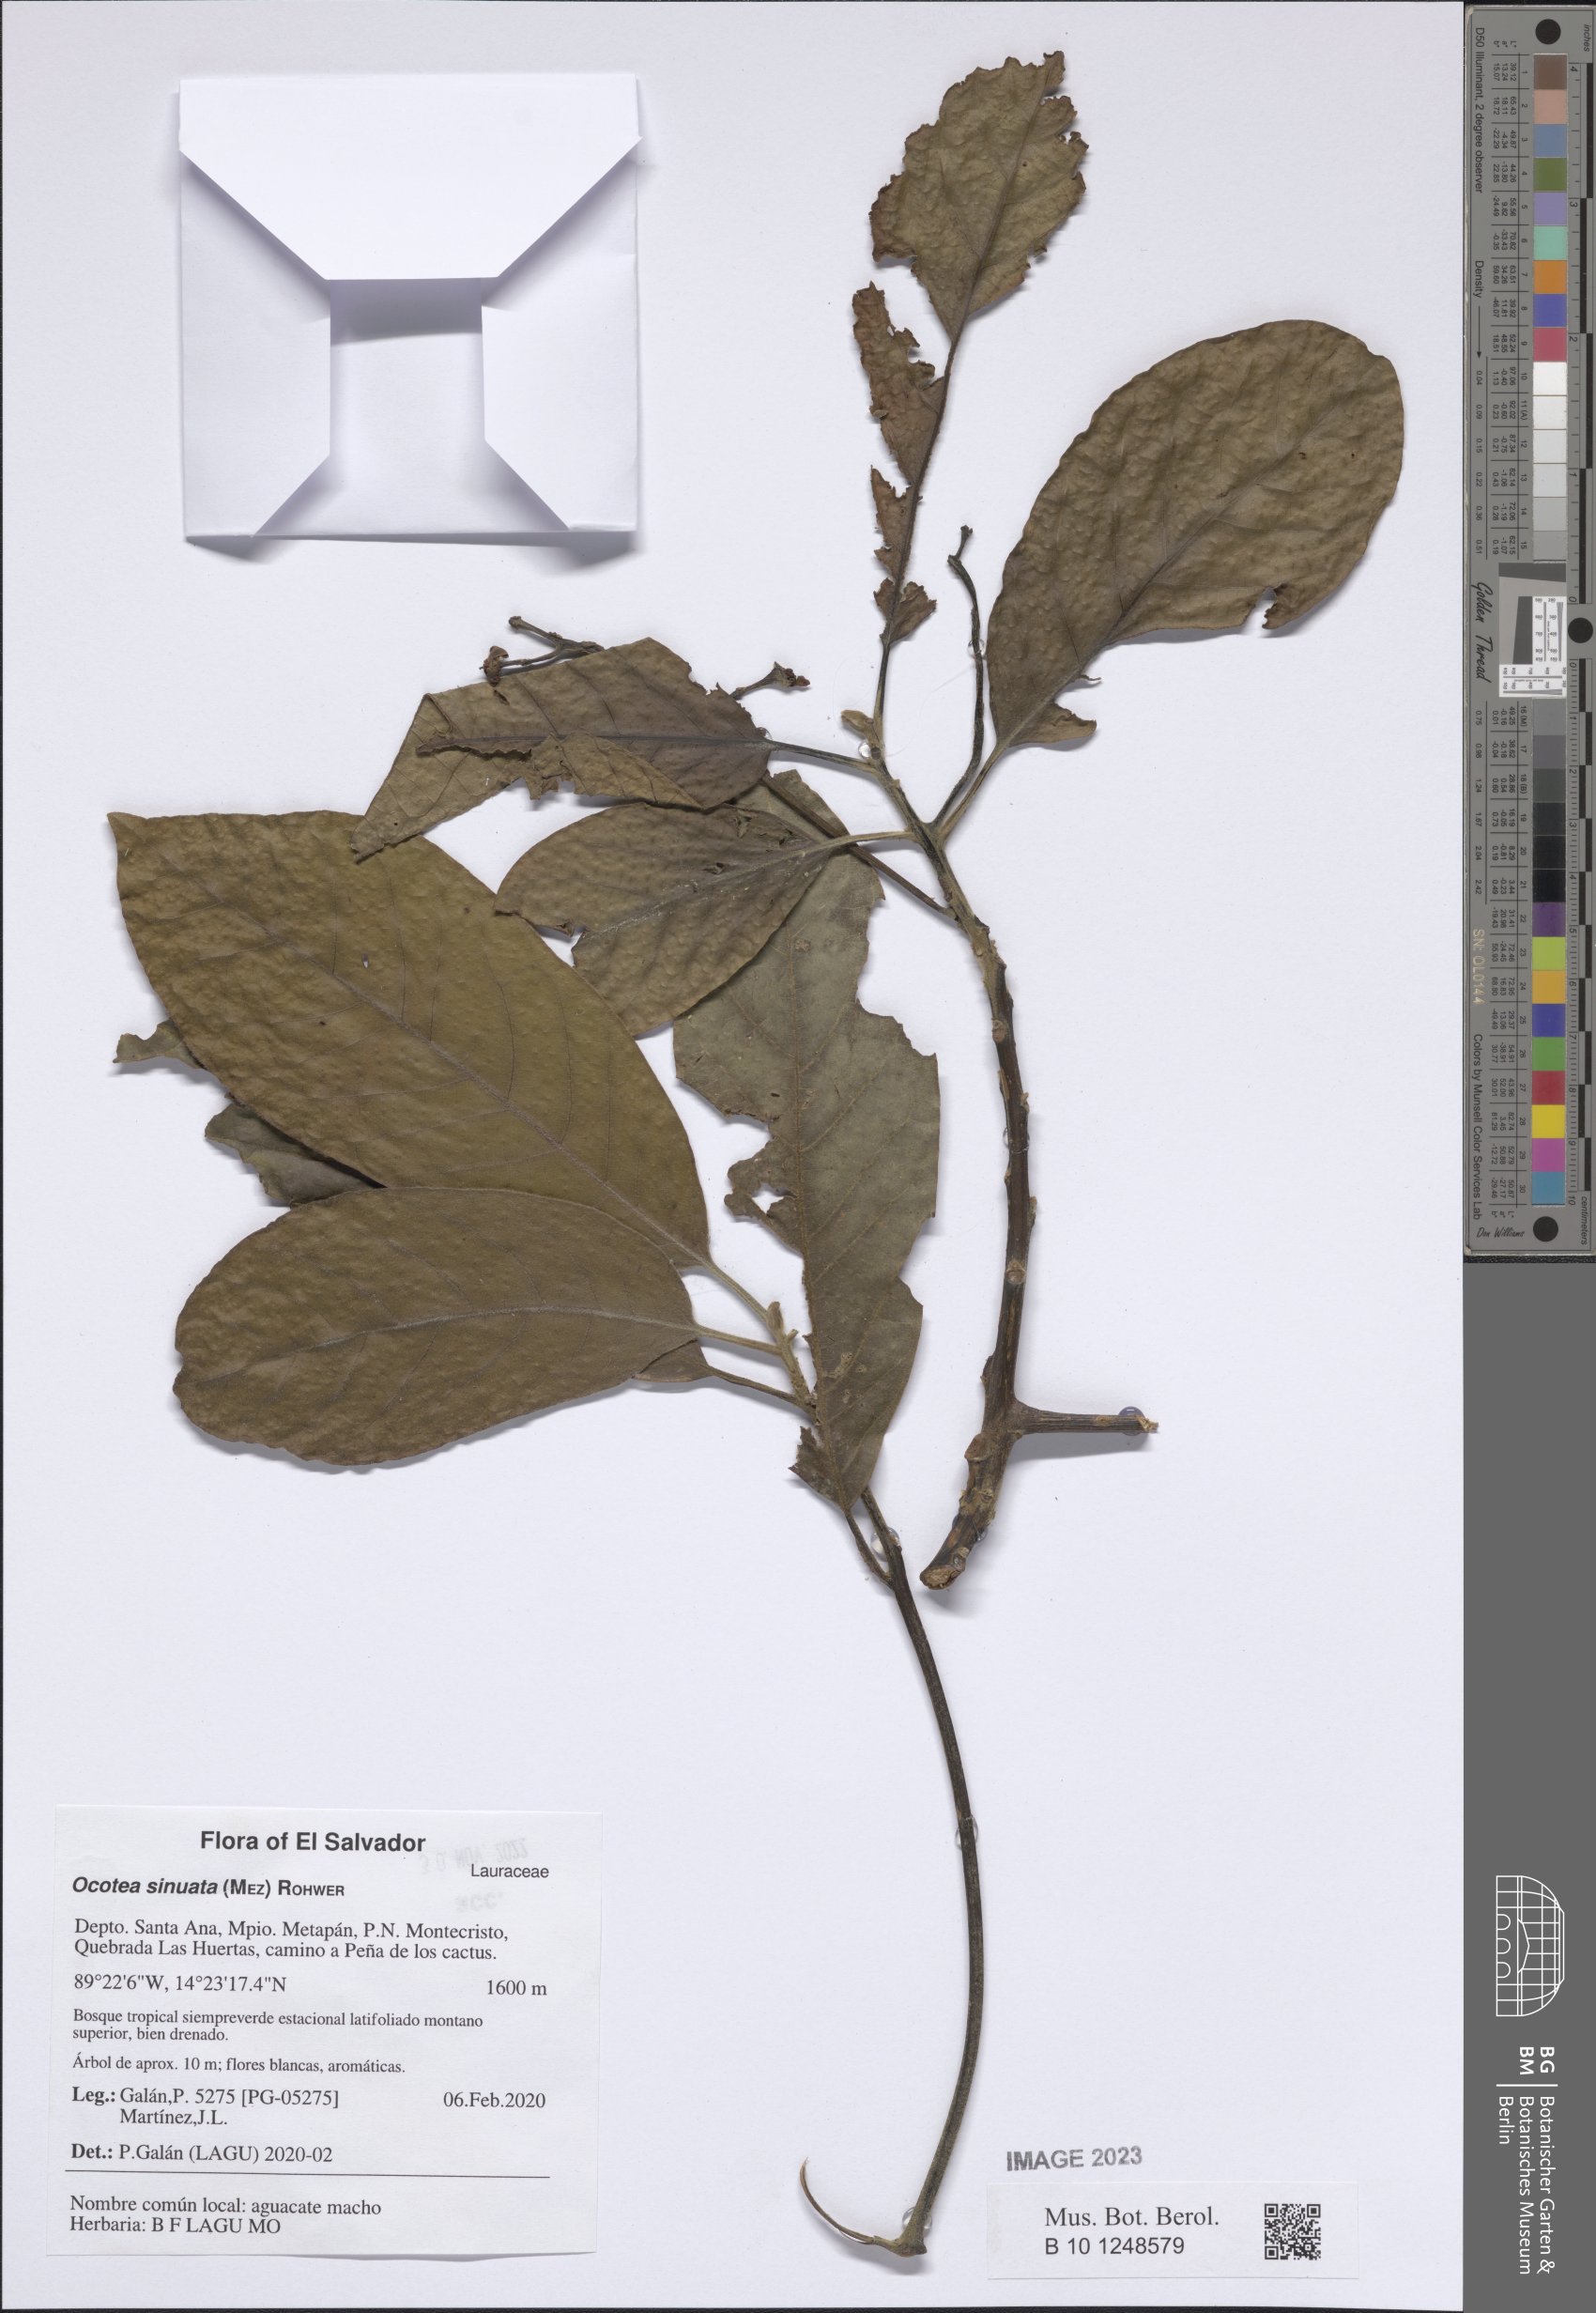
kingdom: Plantae
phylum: Tracheophyta
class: Magnoliopsida
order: Laurales
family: Lauraceae
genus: Ocotea
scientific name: Ocotea sinuata
